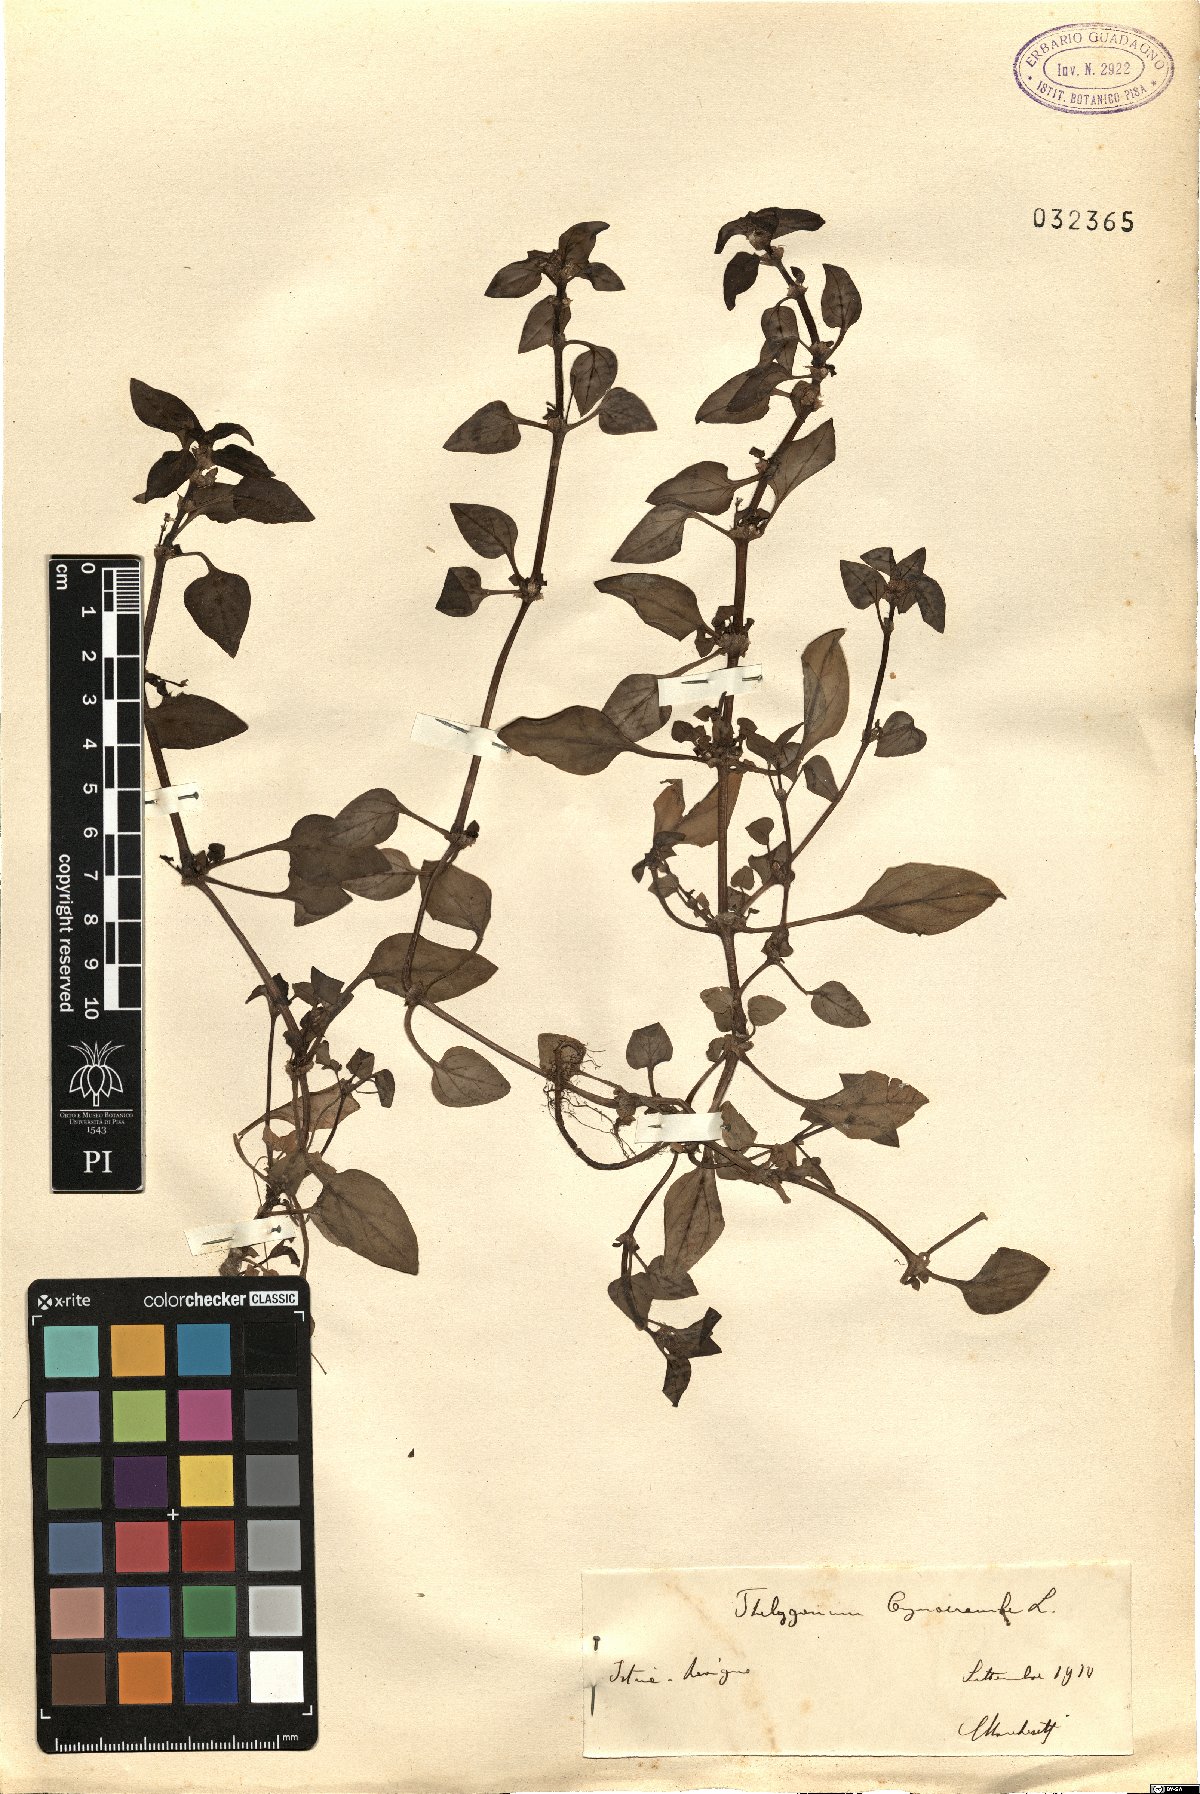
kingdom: Plantae
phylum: Tracheophyta
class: Magnoliopsida
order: Gentianales
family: Rubiaceae
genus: Theligonum
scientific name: Theligonum cynocrambe
